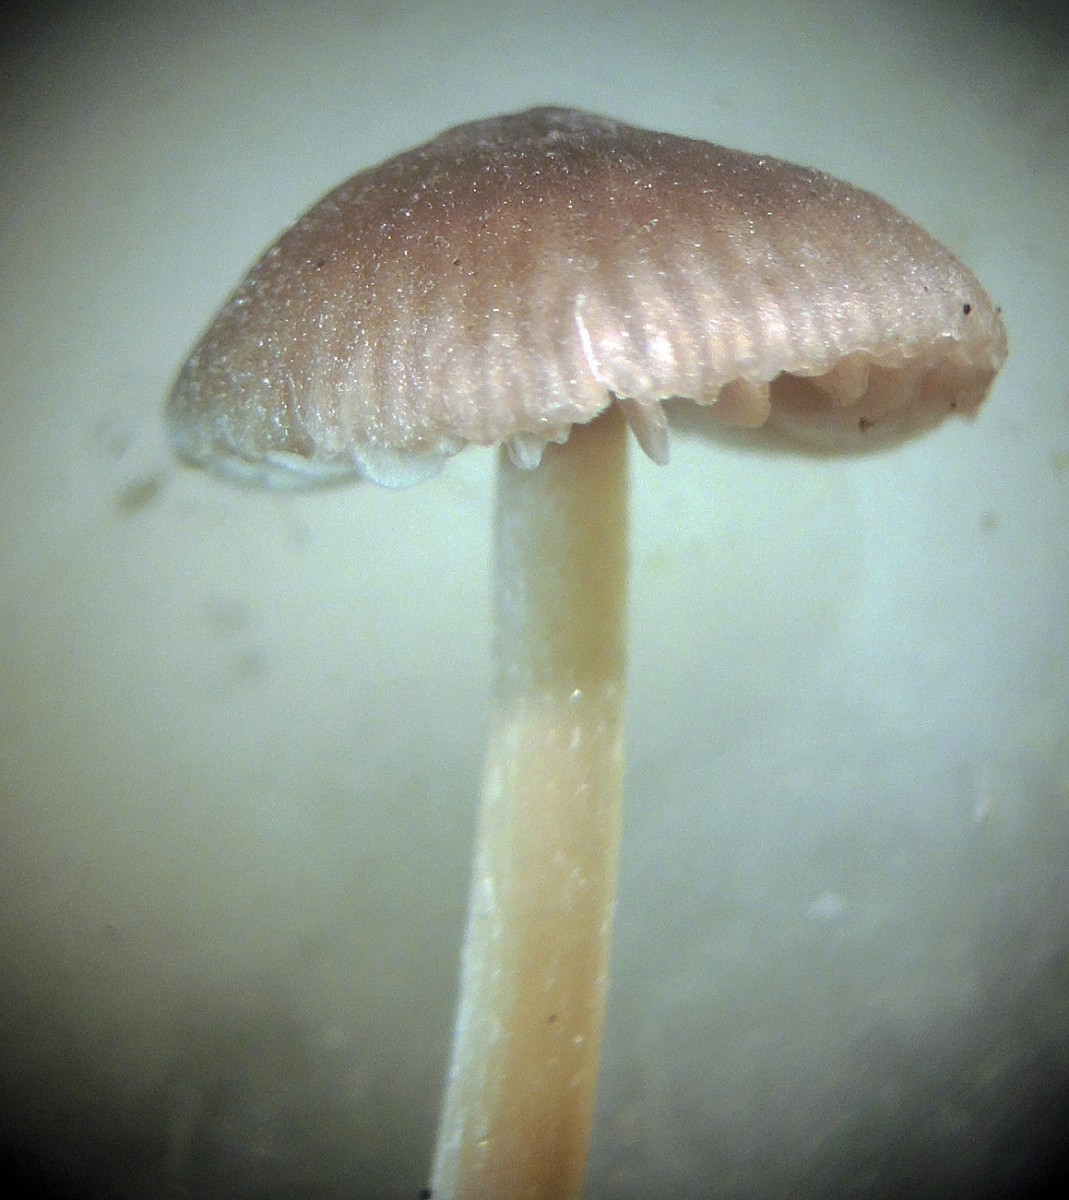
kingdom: Fungi
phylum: Basidiomycota
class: Agaricomycetes
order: Agaricales
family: Entolomataceae
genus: Entoloma
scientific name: Entoloma minutum
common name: liden rødblad
